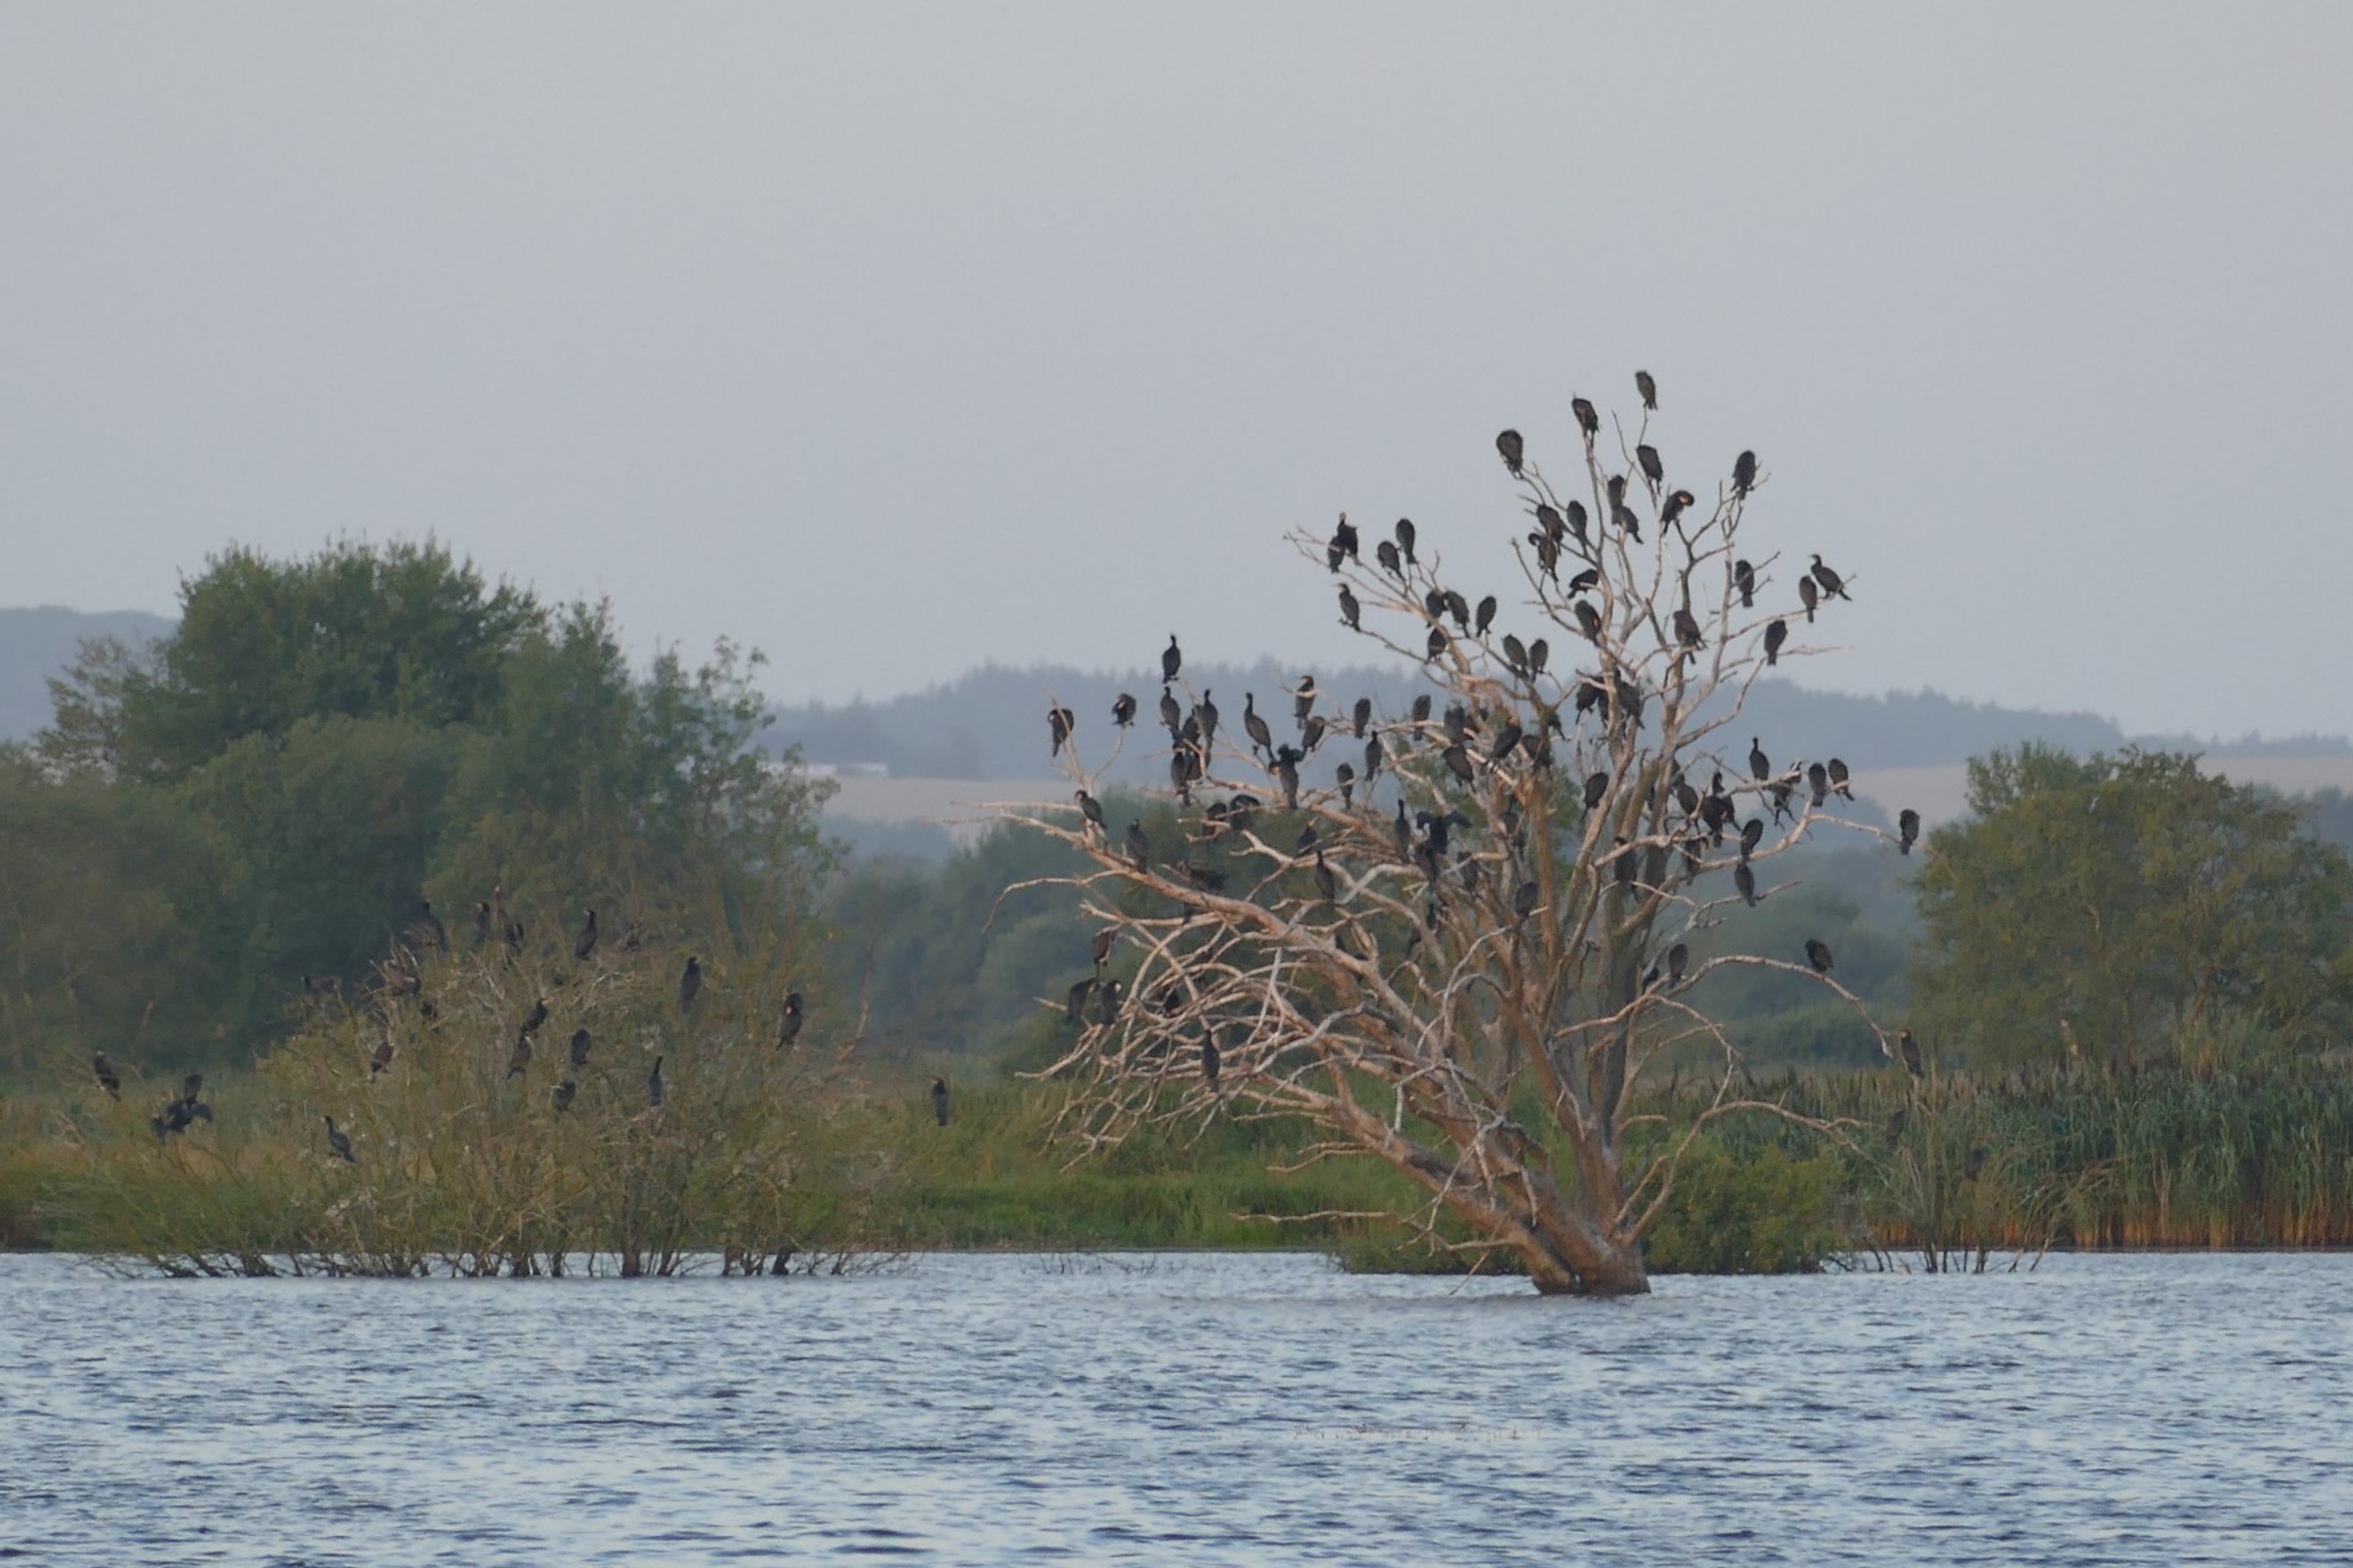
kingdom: Animalia
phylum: Chordata
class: Aves
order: Suliformes
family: Phalacrocoracidae
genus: Phalacrocorax
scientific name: Phalacrocorax carbo
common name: Skarv
